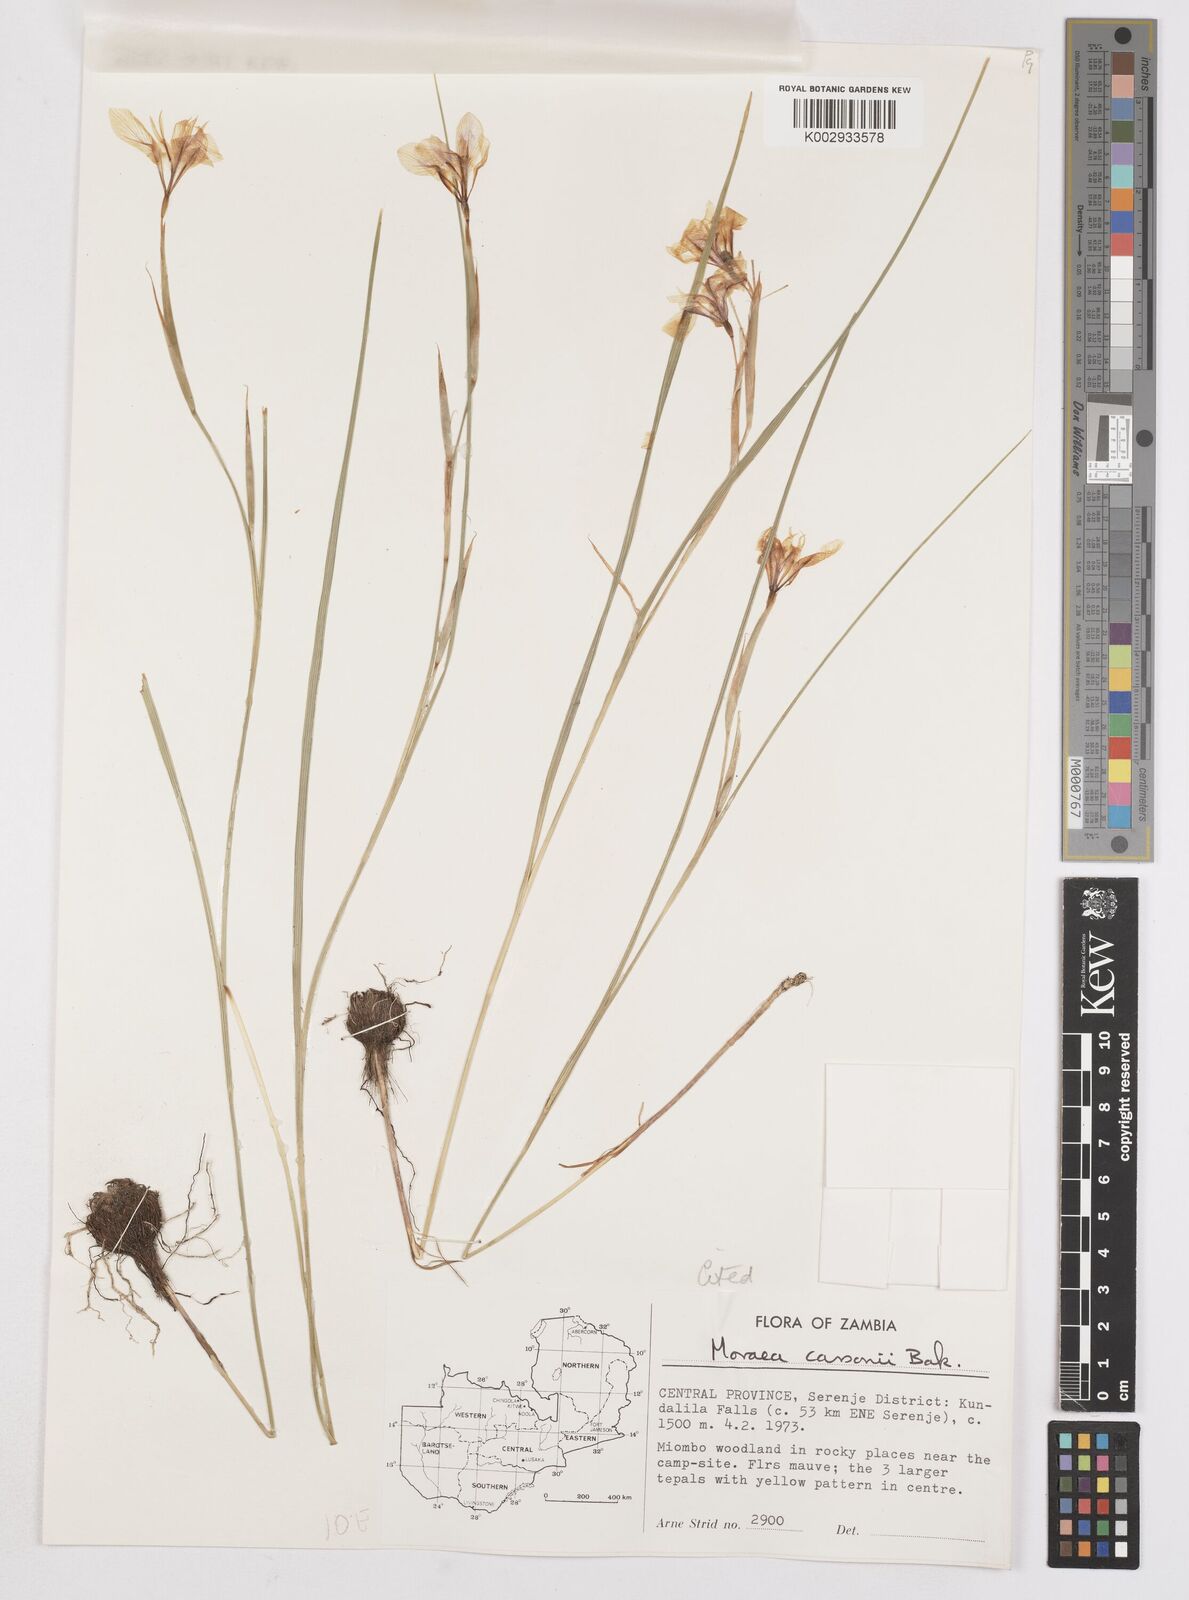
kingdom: Plantae
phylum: Tracheophyta
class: Liliopsida
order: Asparagales
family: Iridaceae
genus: Moraea
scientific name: Moraea carsonii
